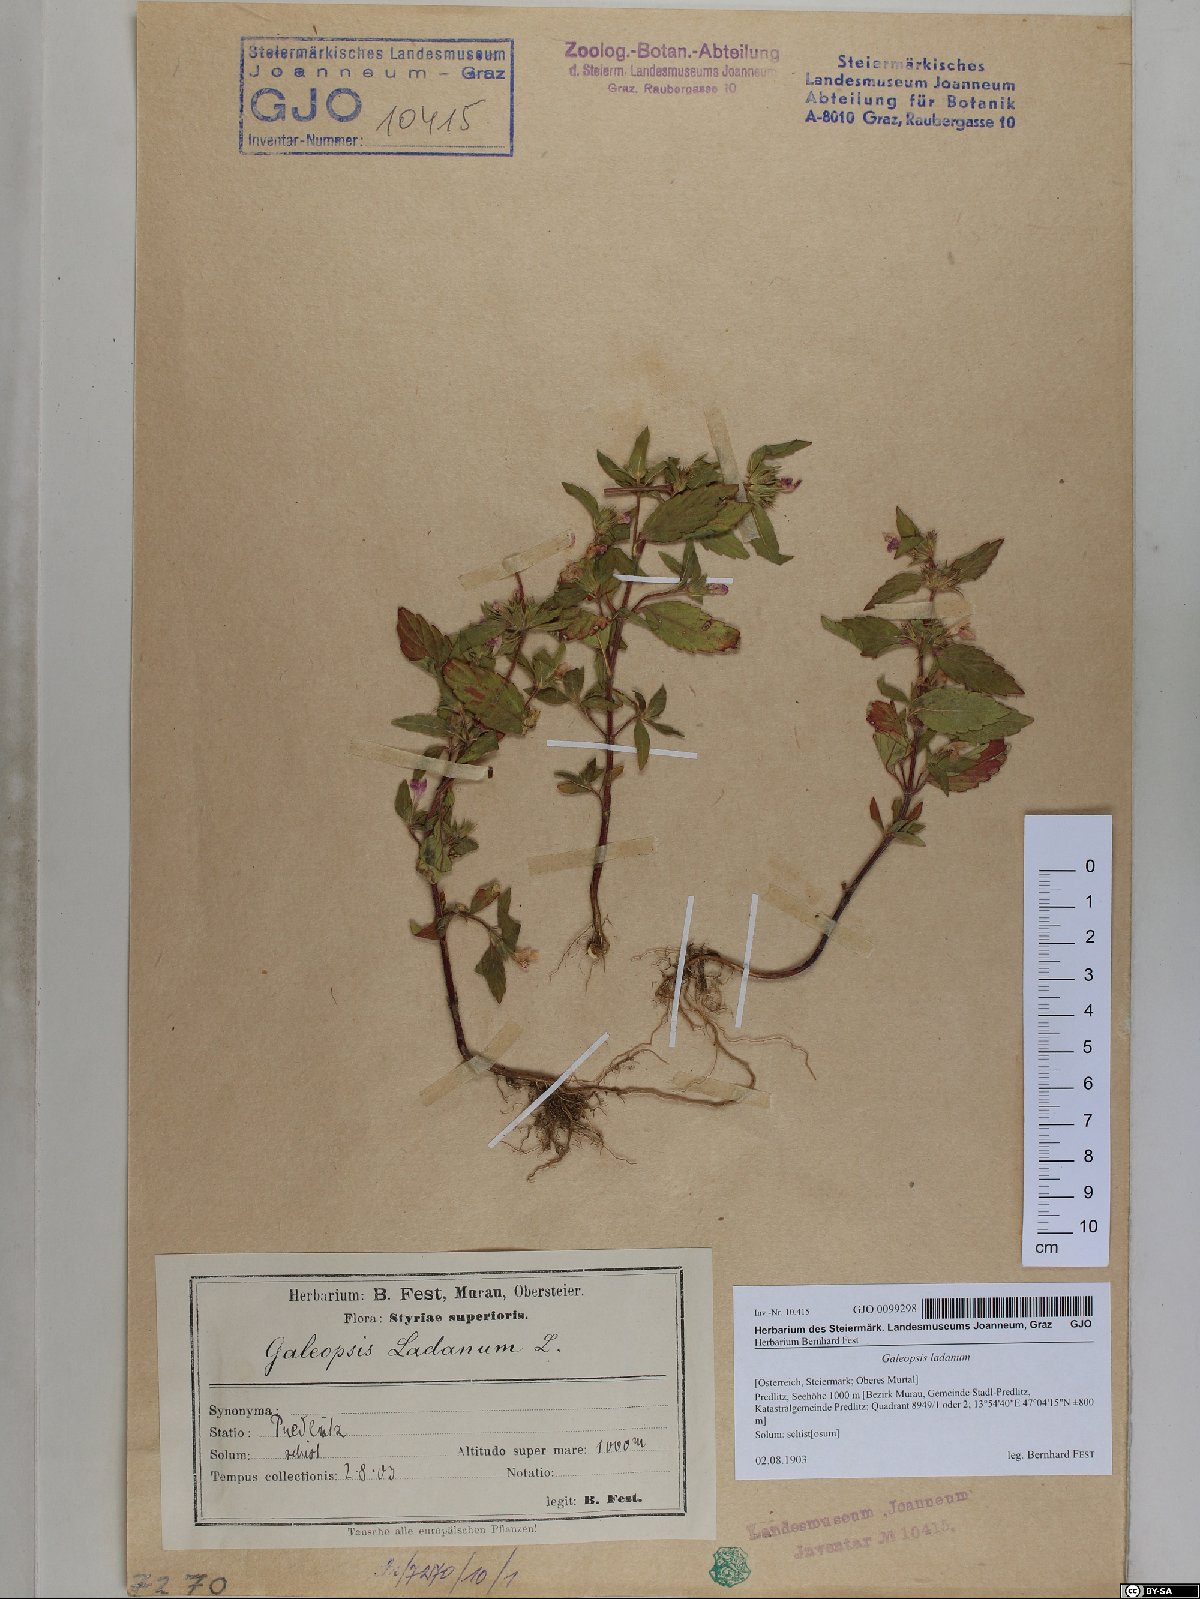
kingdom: Plantae
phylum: Tracheophyta
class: Magnoliopsida
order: Lamiales
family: Lamiaceae
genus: Galeopsis
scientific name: Galeopsis ladanum
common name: Broad-leaved hemp-nettle
